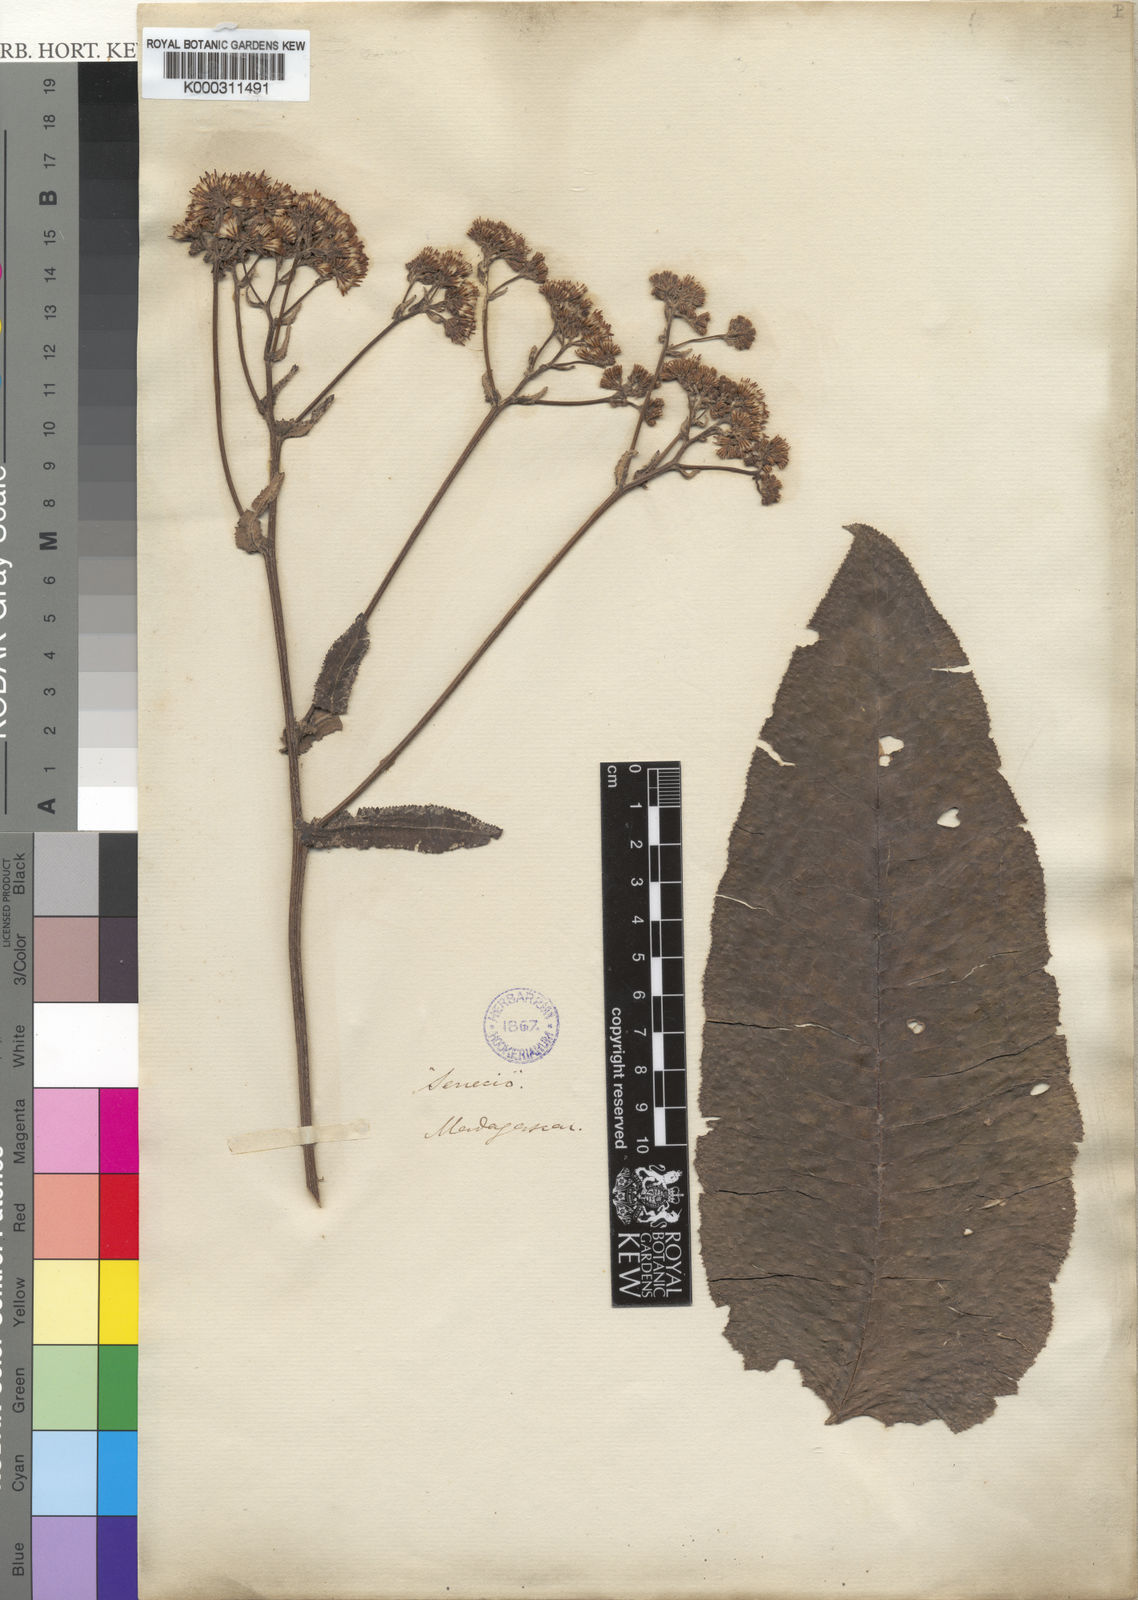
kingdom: Plantae
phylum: Tracheophyta
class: Magnoliopsida
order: Asterales
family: Asteraceae
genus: Senecio
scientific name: Senecio cochlearifolius
